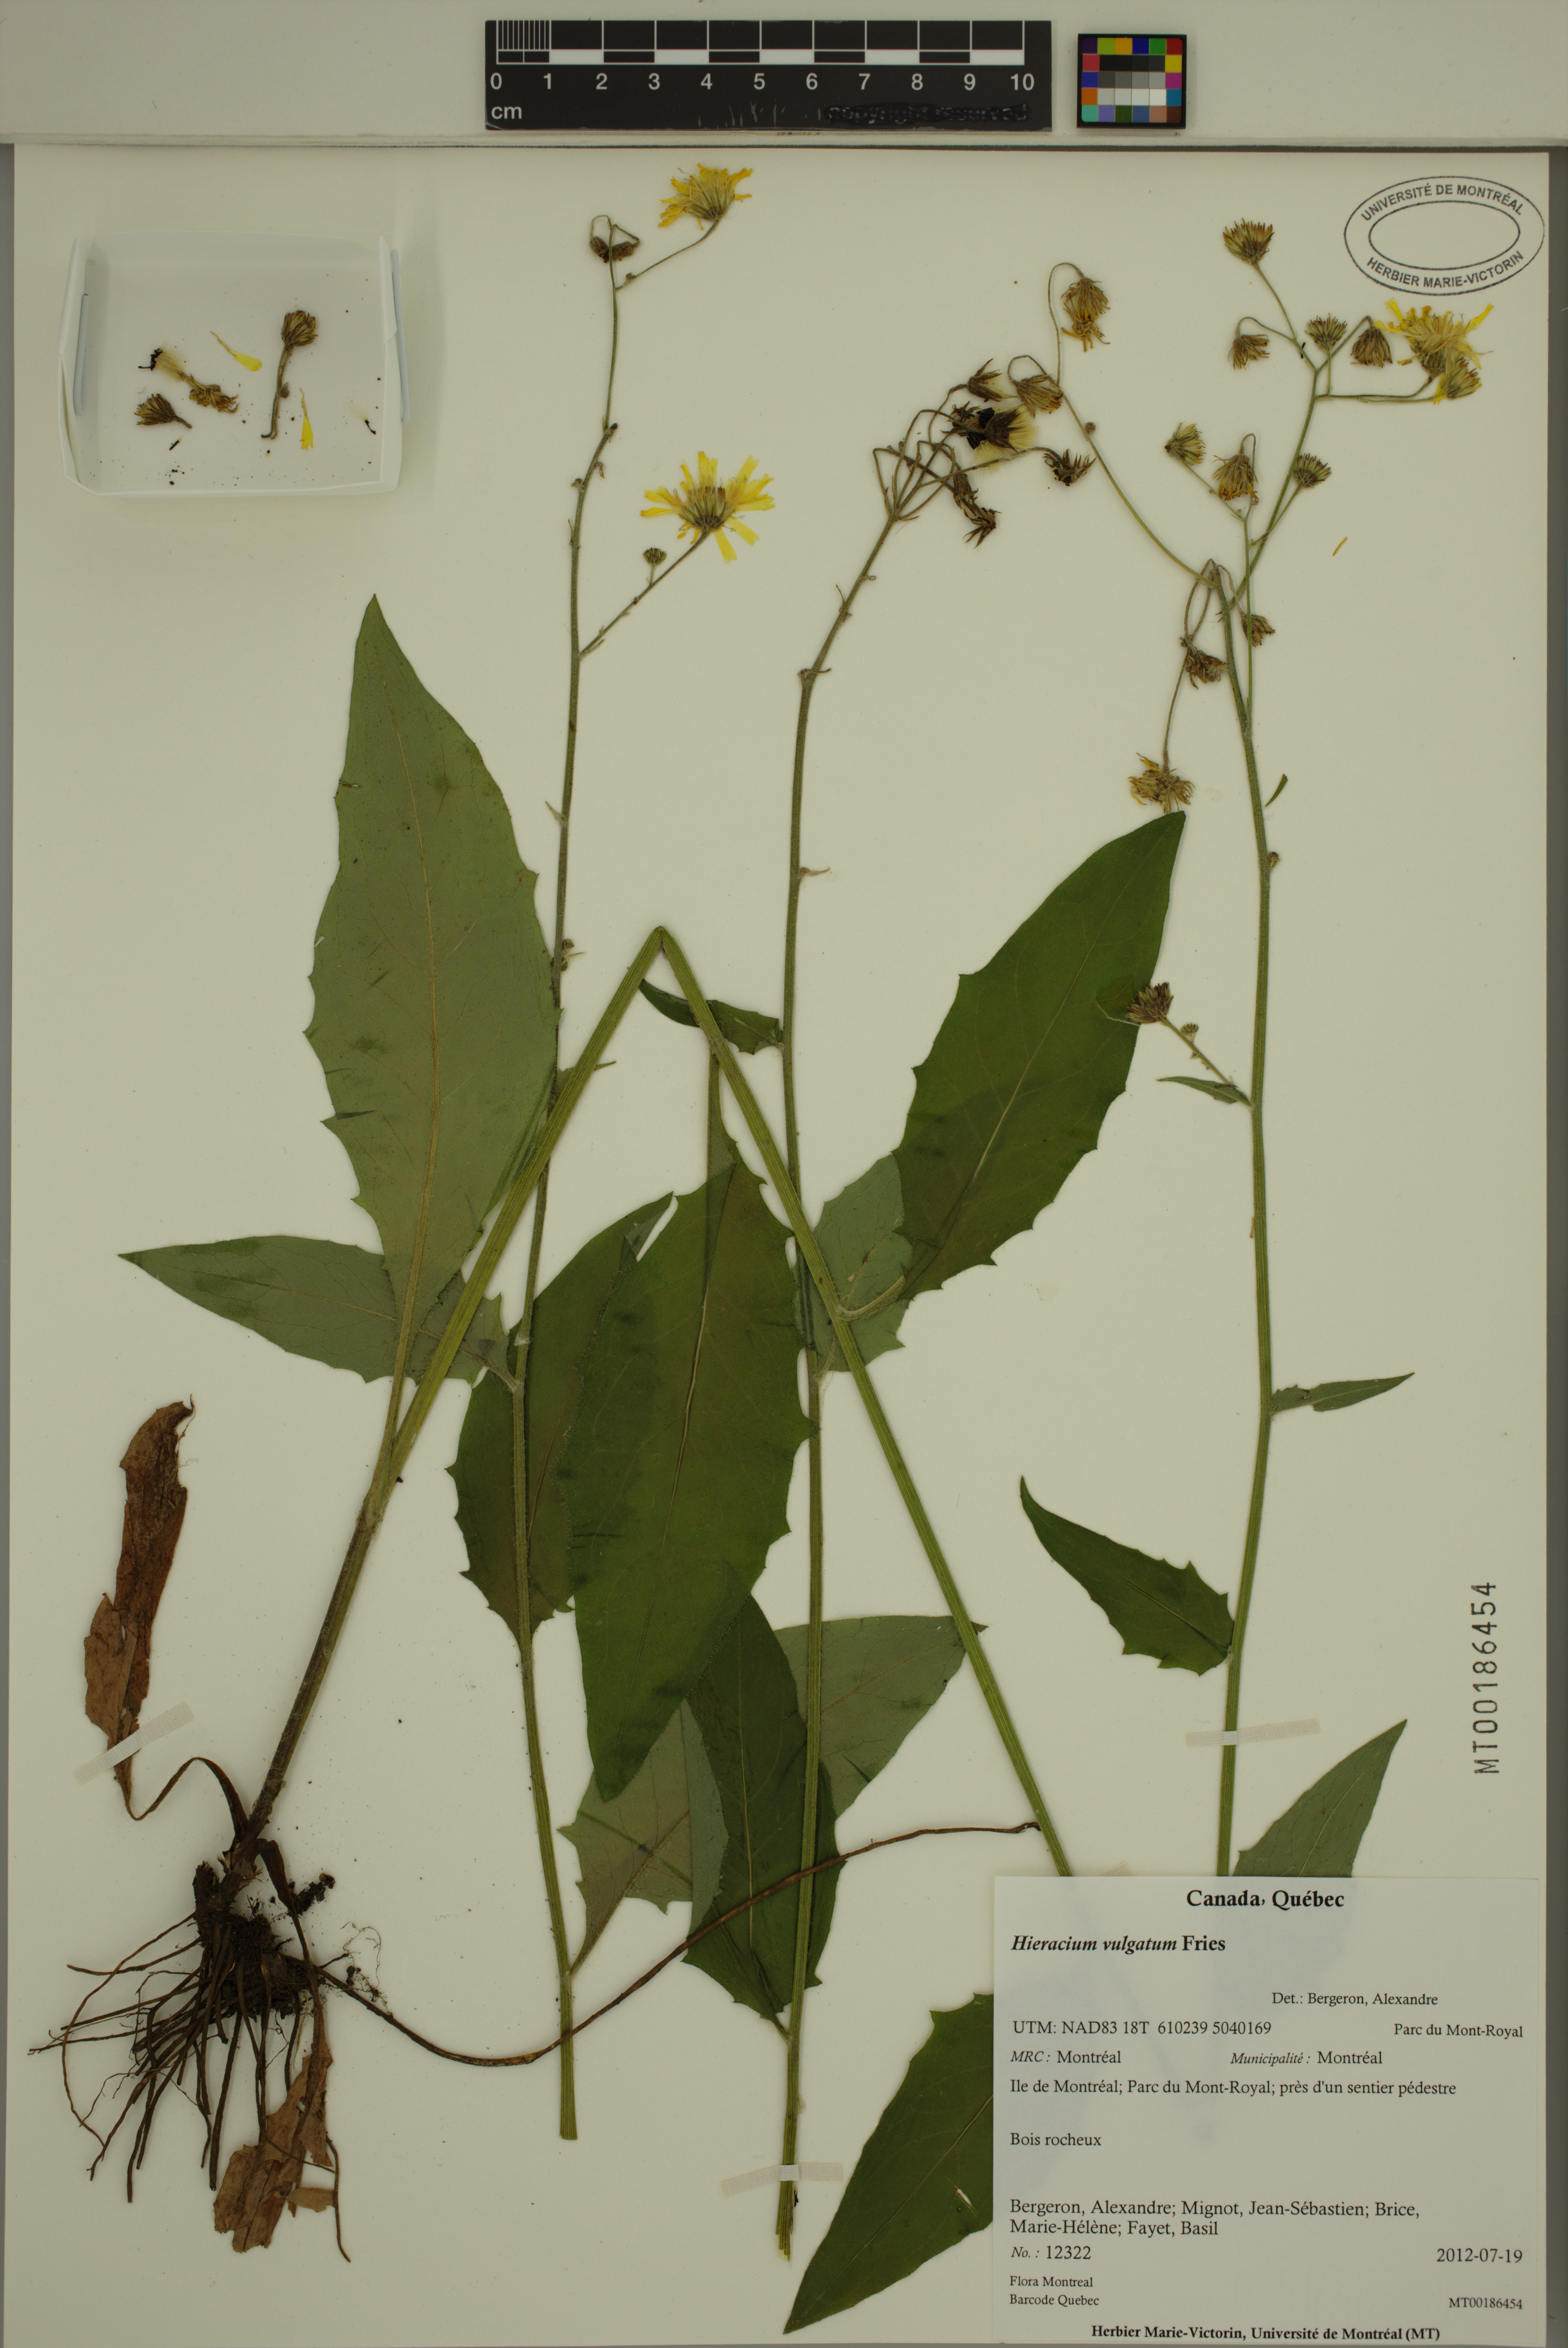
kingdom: Plantae
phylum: Tracheophyta
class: Magnoliopsida
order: Asterales
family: Asteraceae
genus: Hieracium
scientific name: Hieracium lachenalii
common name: Common hawkweed
